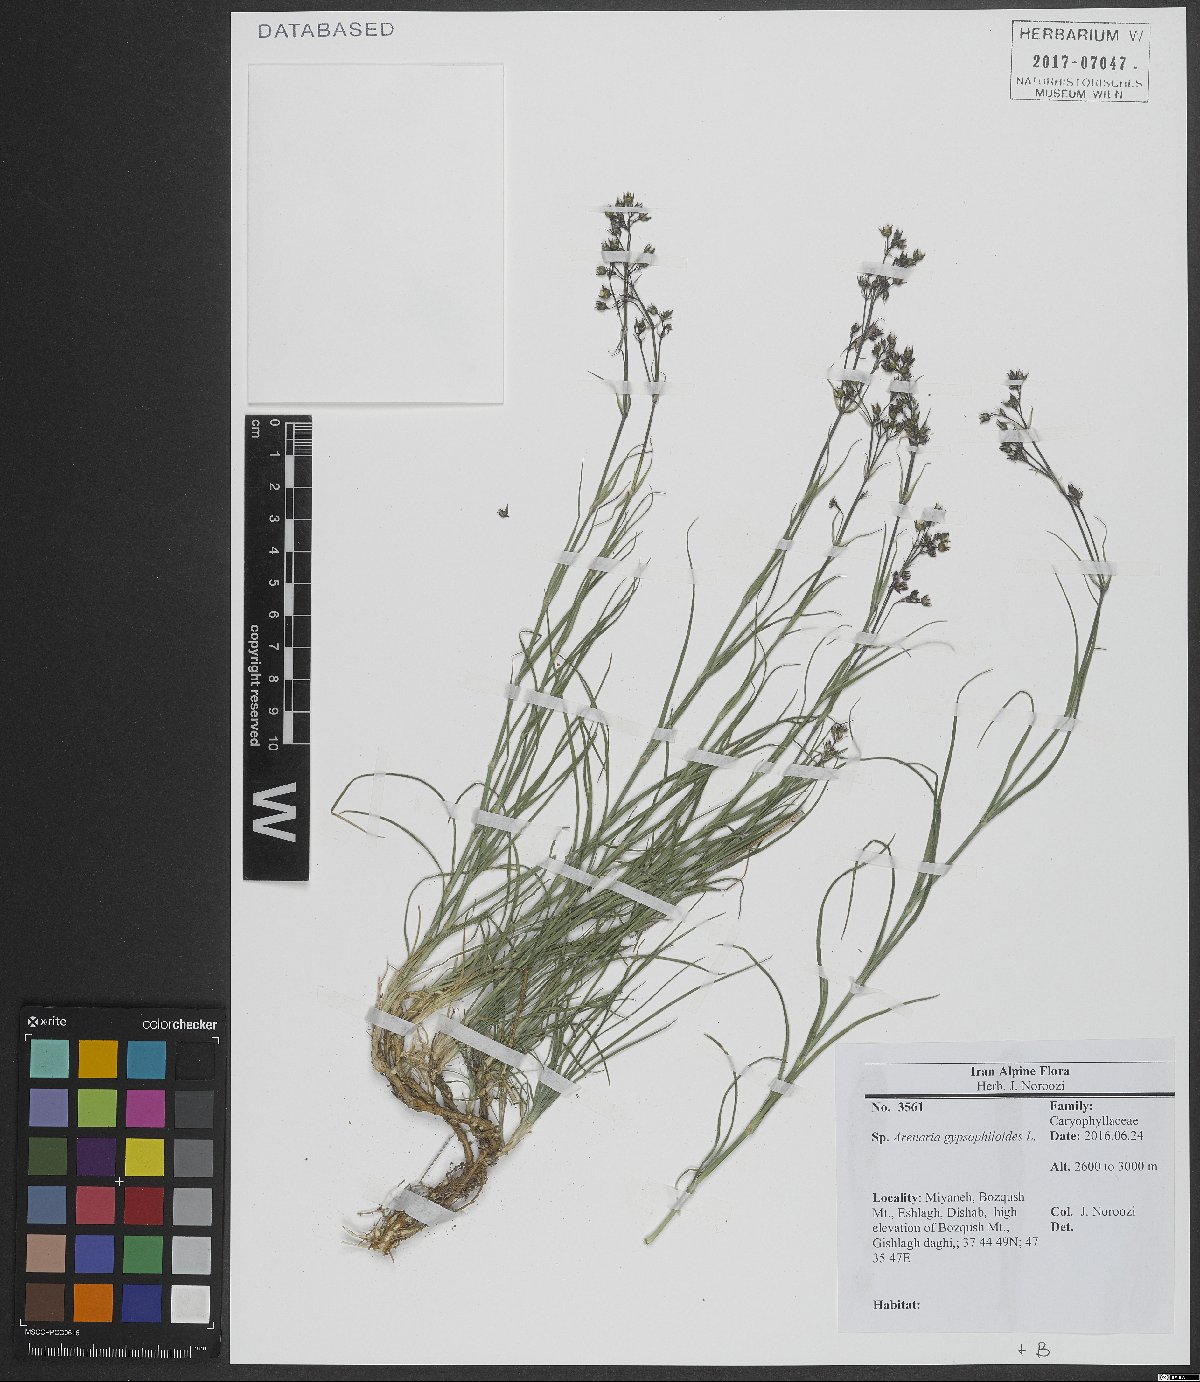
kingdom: Plantae
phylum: Tracheophyta
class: Magnoliopsida
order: Caryophyllales
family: Caryophyllaceae
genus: Eremogone
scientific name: Eremogone gypsophiloides
